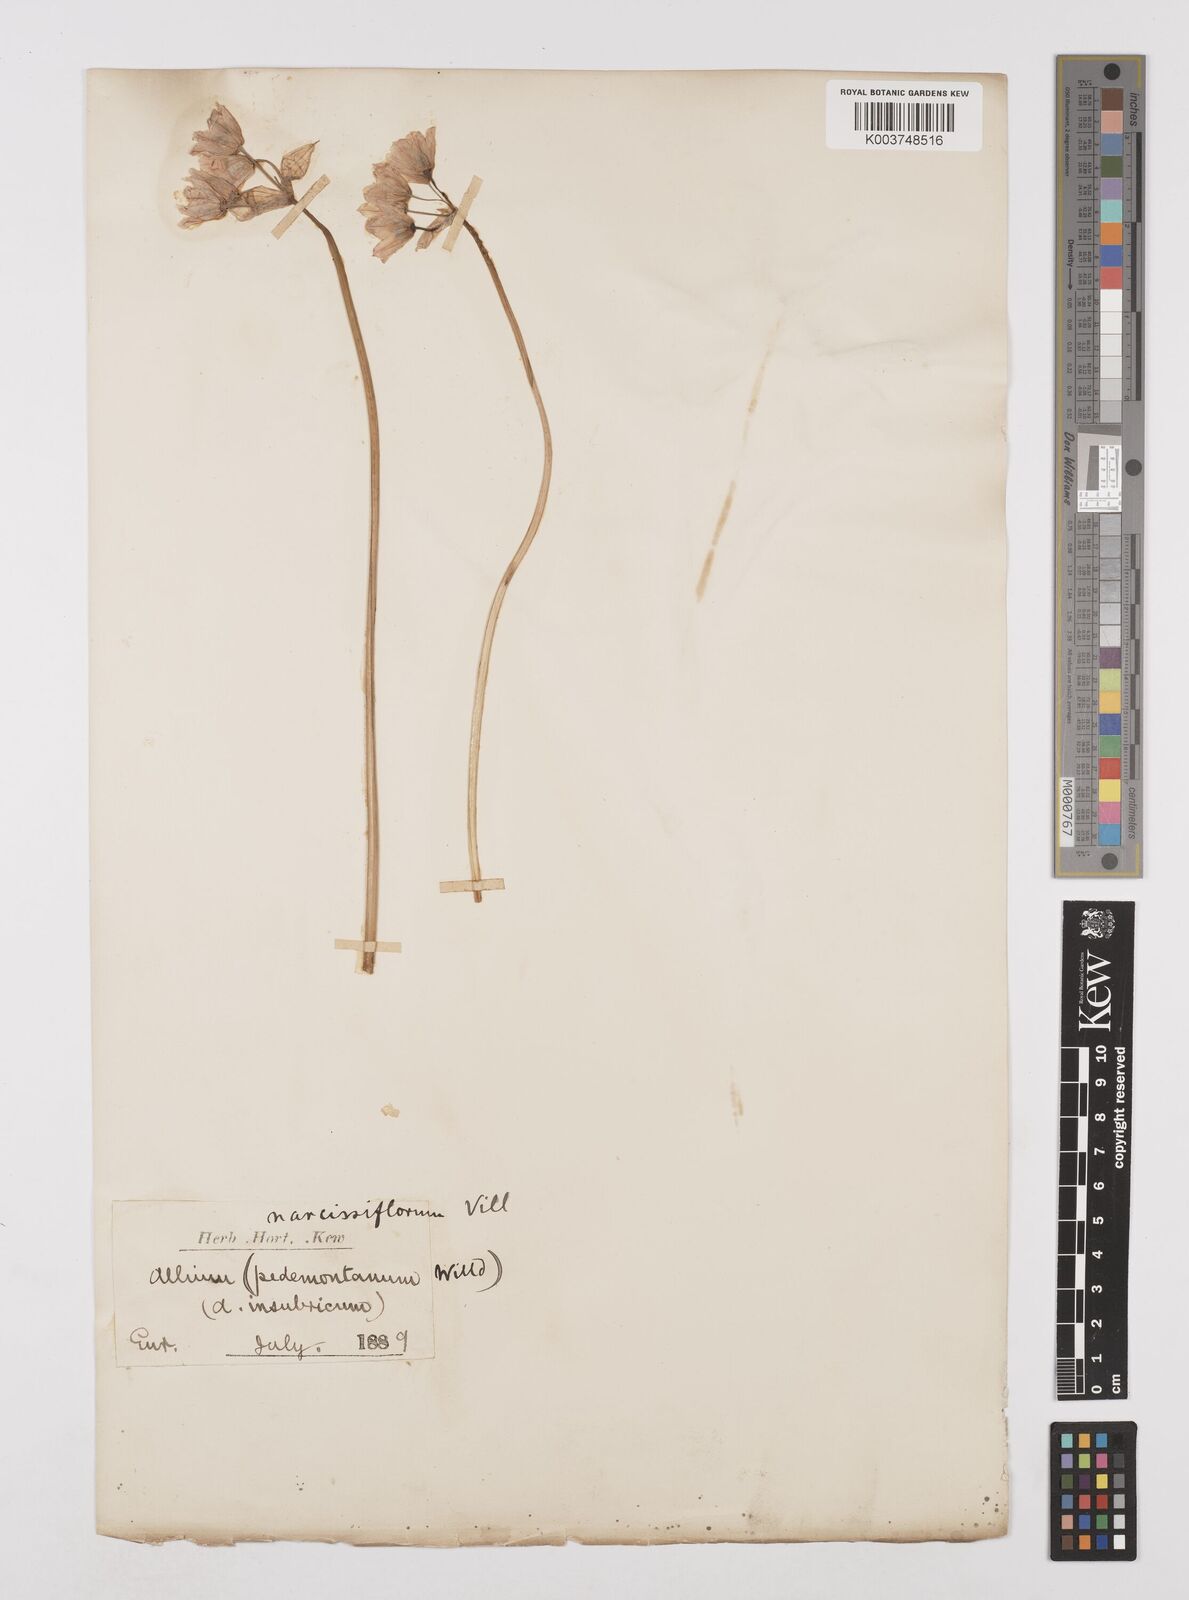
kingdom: Plantae
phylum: Tracheophyta
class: Liliopsida
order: Asparagales
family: Amaryllidaceae
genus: Allium
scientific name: Allium narcissiflorum
